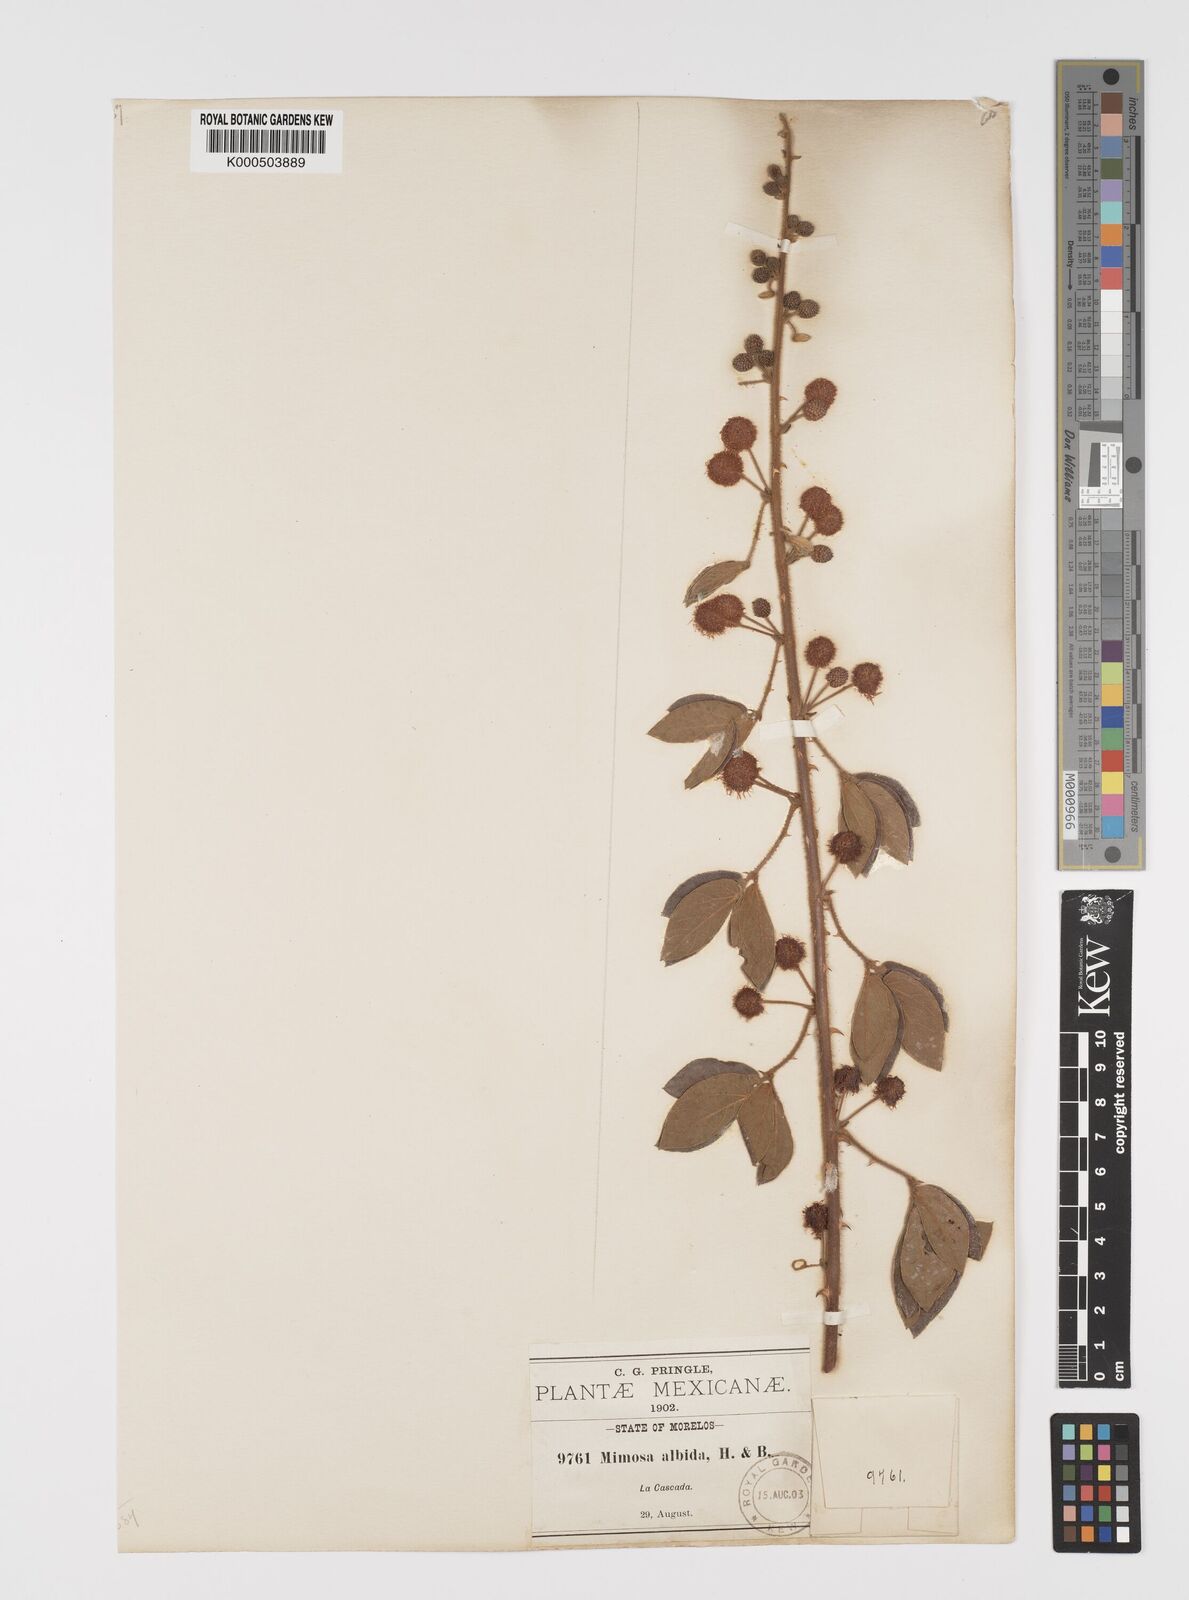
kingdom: Plantae
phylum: Tracheophyta
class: Magnoliopsida
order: Fabales
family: Fabaceae
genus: Mimosa
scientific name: Mimosa albida
